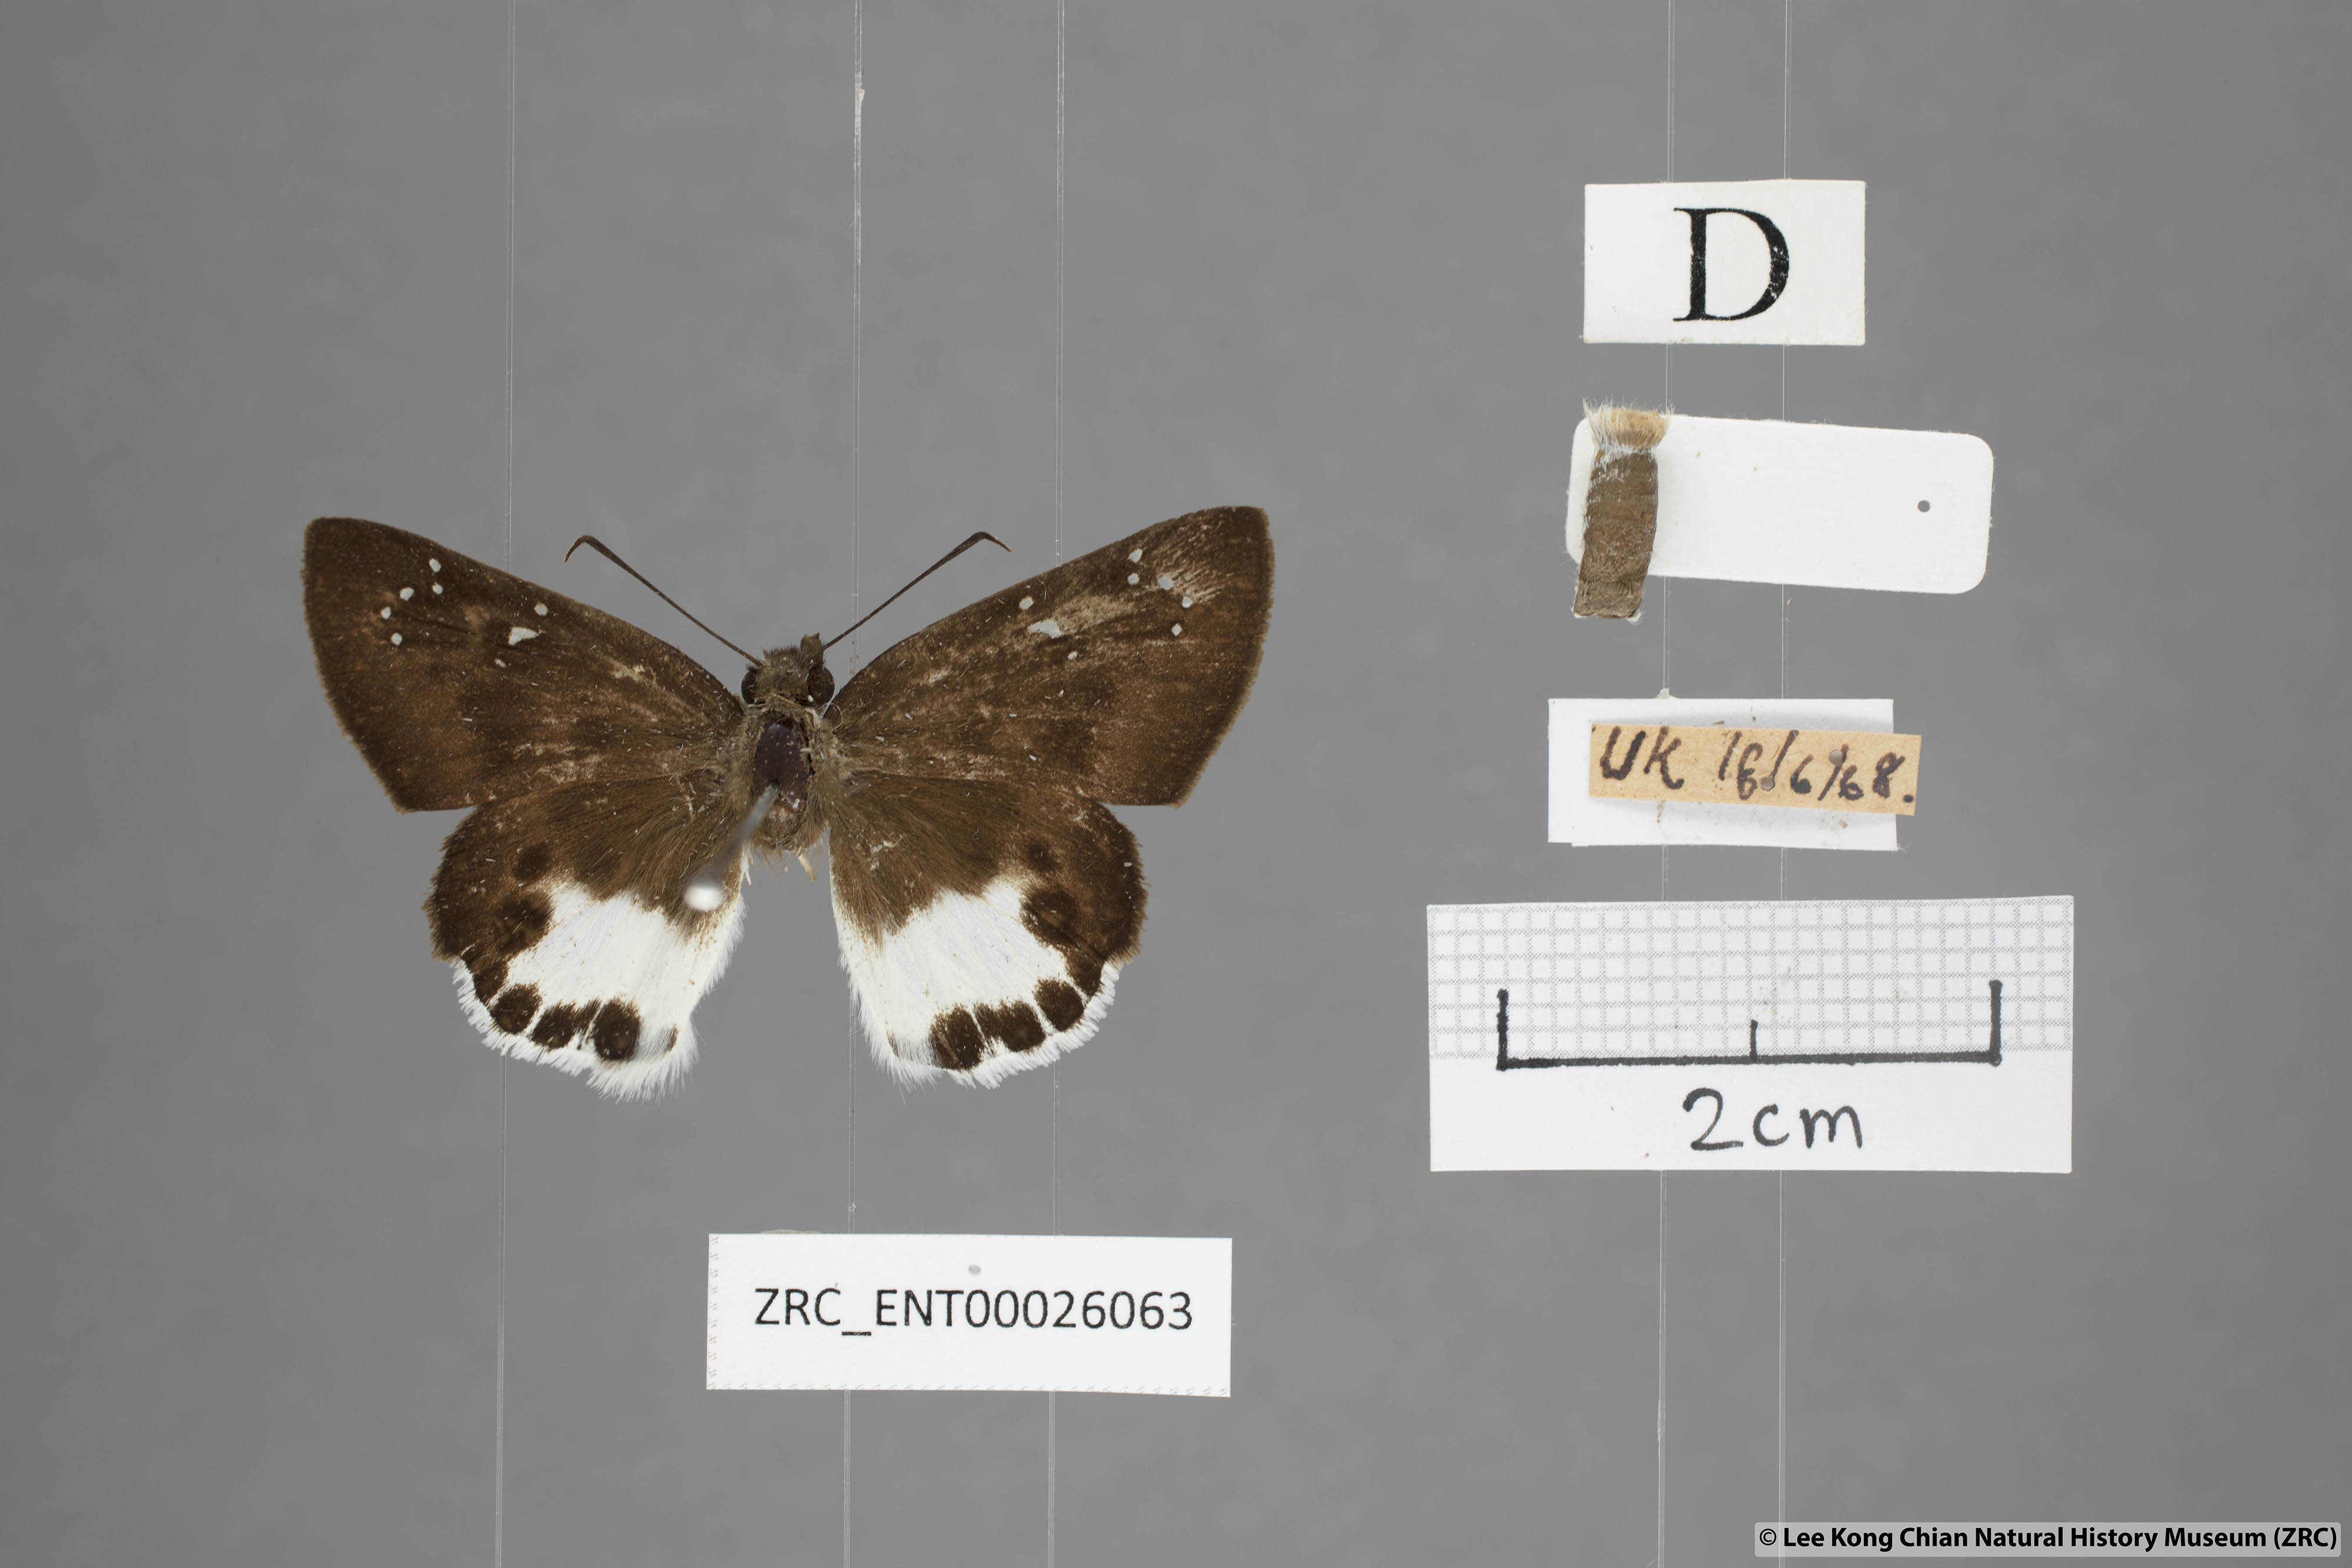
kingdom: Animalia
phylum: Arthropoda
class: Insecta
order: Lepidoptera
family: Hesperiidae
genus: Tagiades
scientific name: Tagiades litigiosa
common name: Water snow flat
